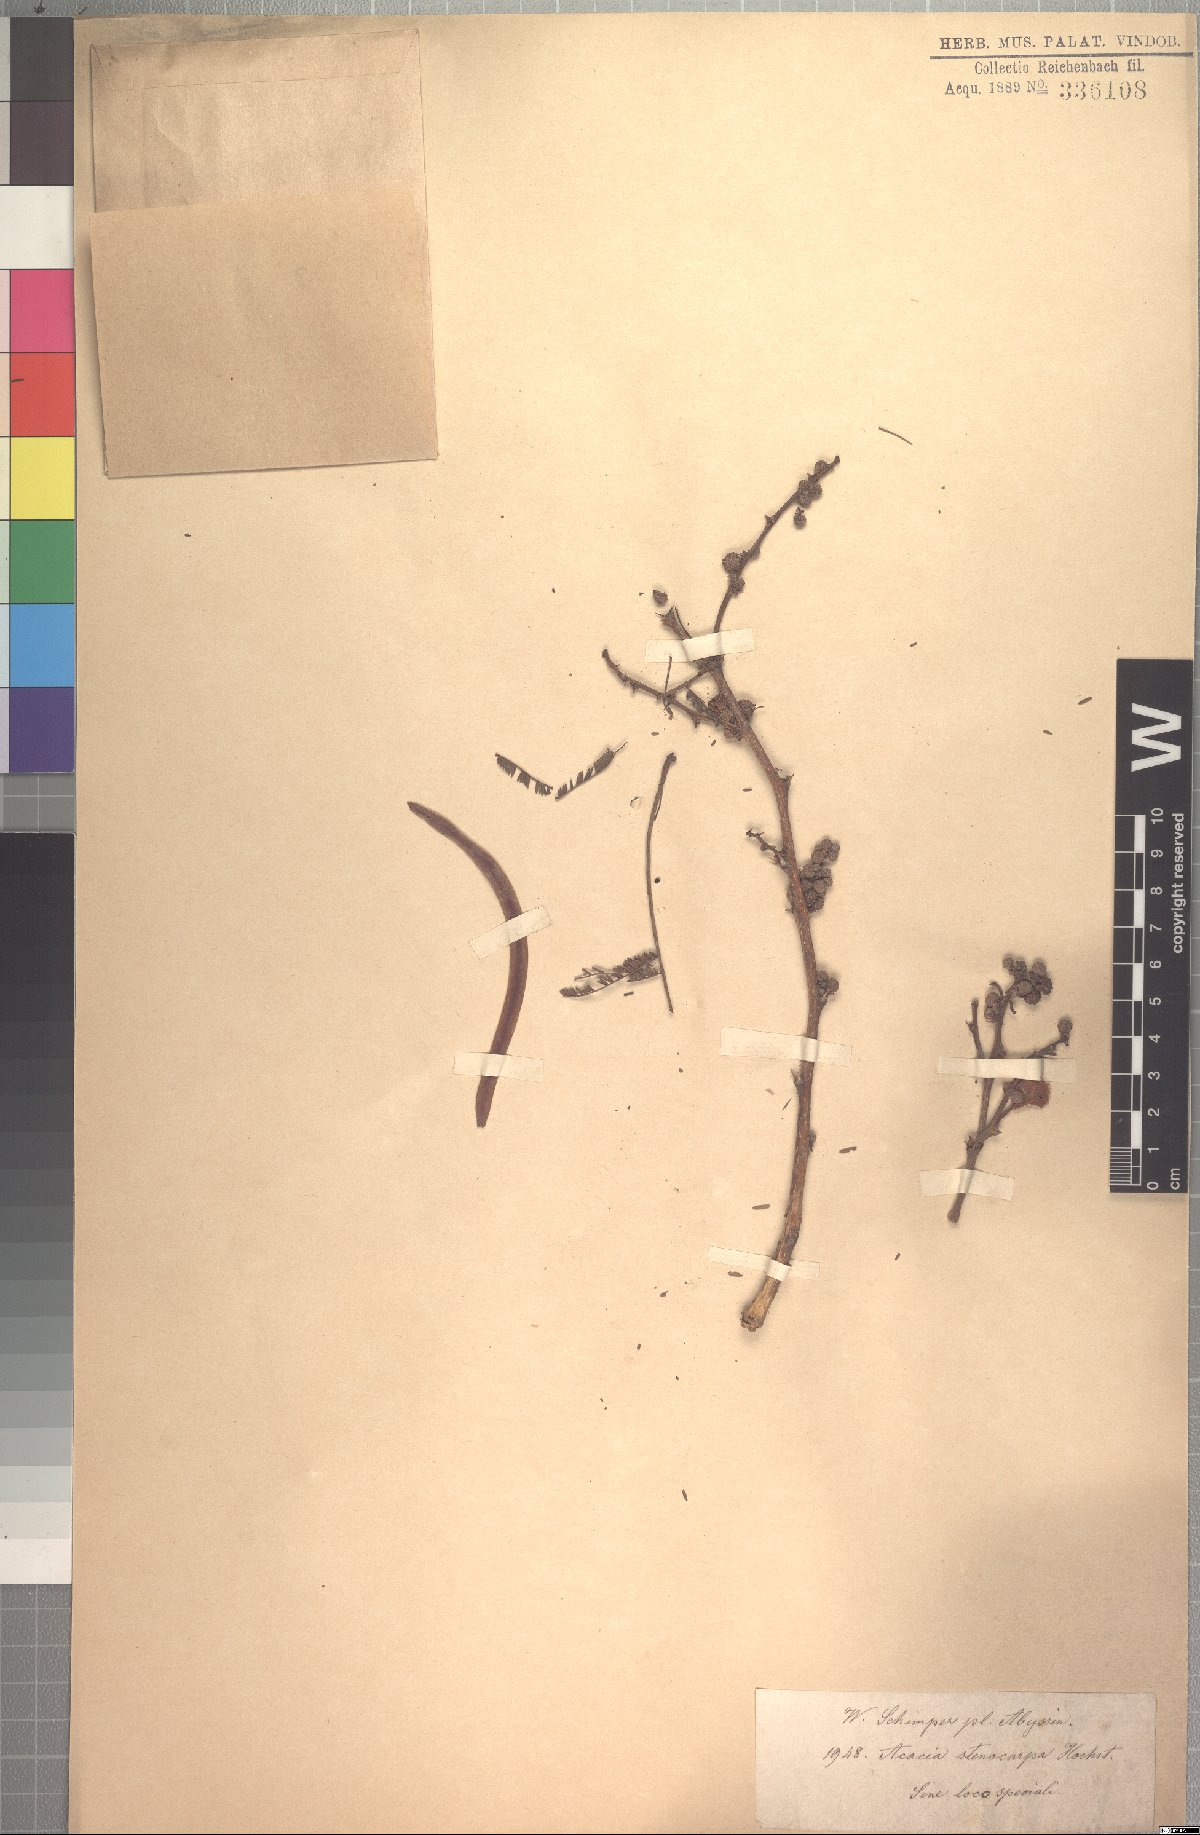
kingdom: Plantae
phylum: Tracheophyta
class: Magnoliopsida
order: Fabales
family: Fabaceae
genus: Vachellia
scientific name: Vachellia seyal
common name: Thirtythorn
